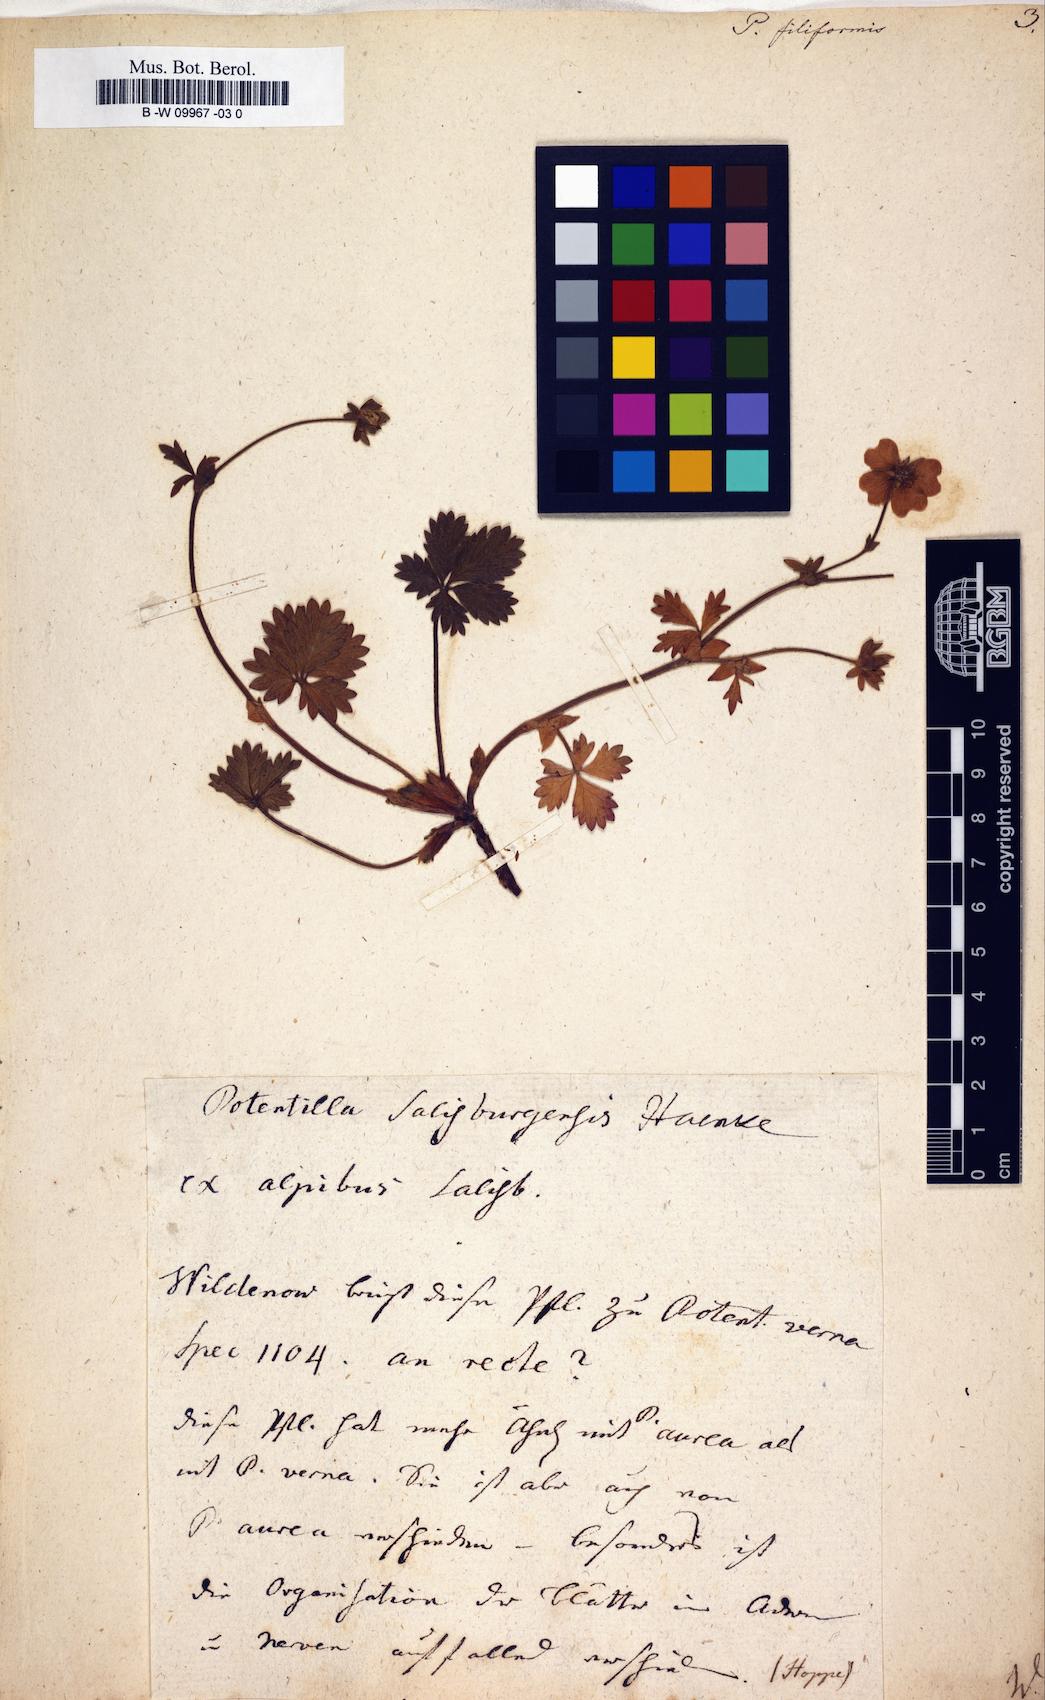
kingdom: Plantae
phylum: Tracheophyta
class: Magnoliopsida
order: Rosales
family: Rosaceae
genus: Potentilla
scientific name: Potentilla
